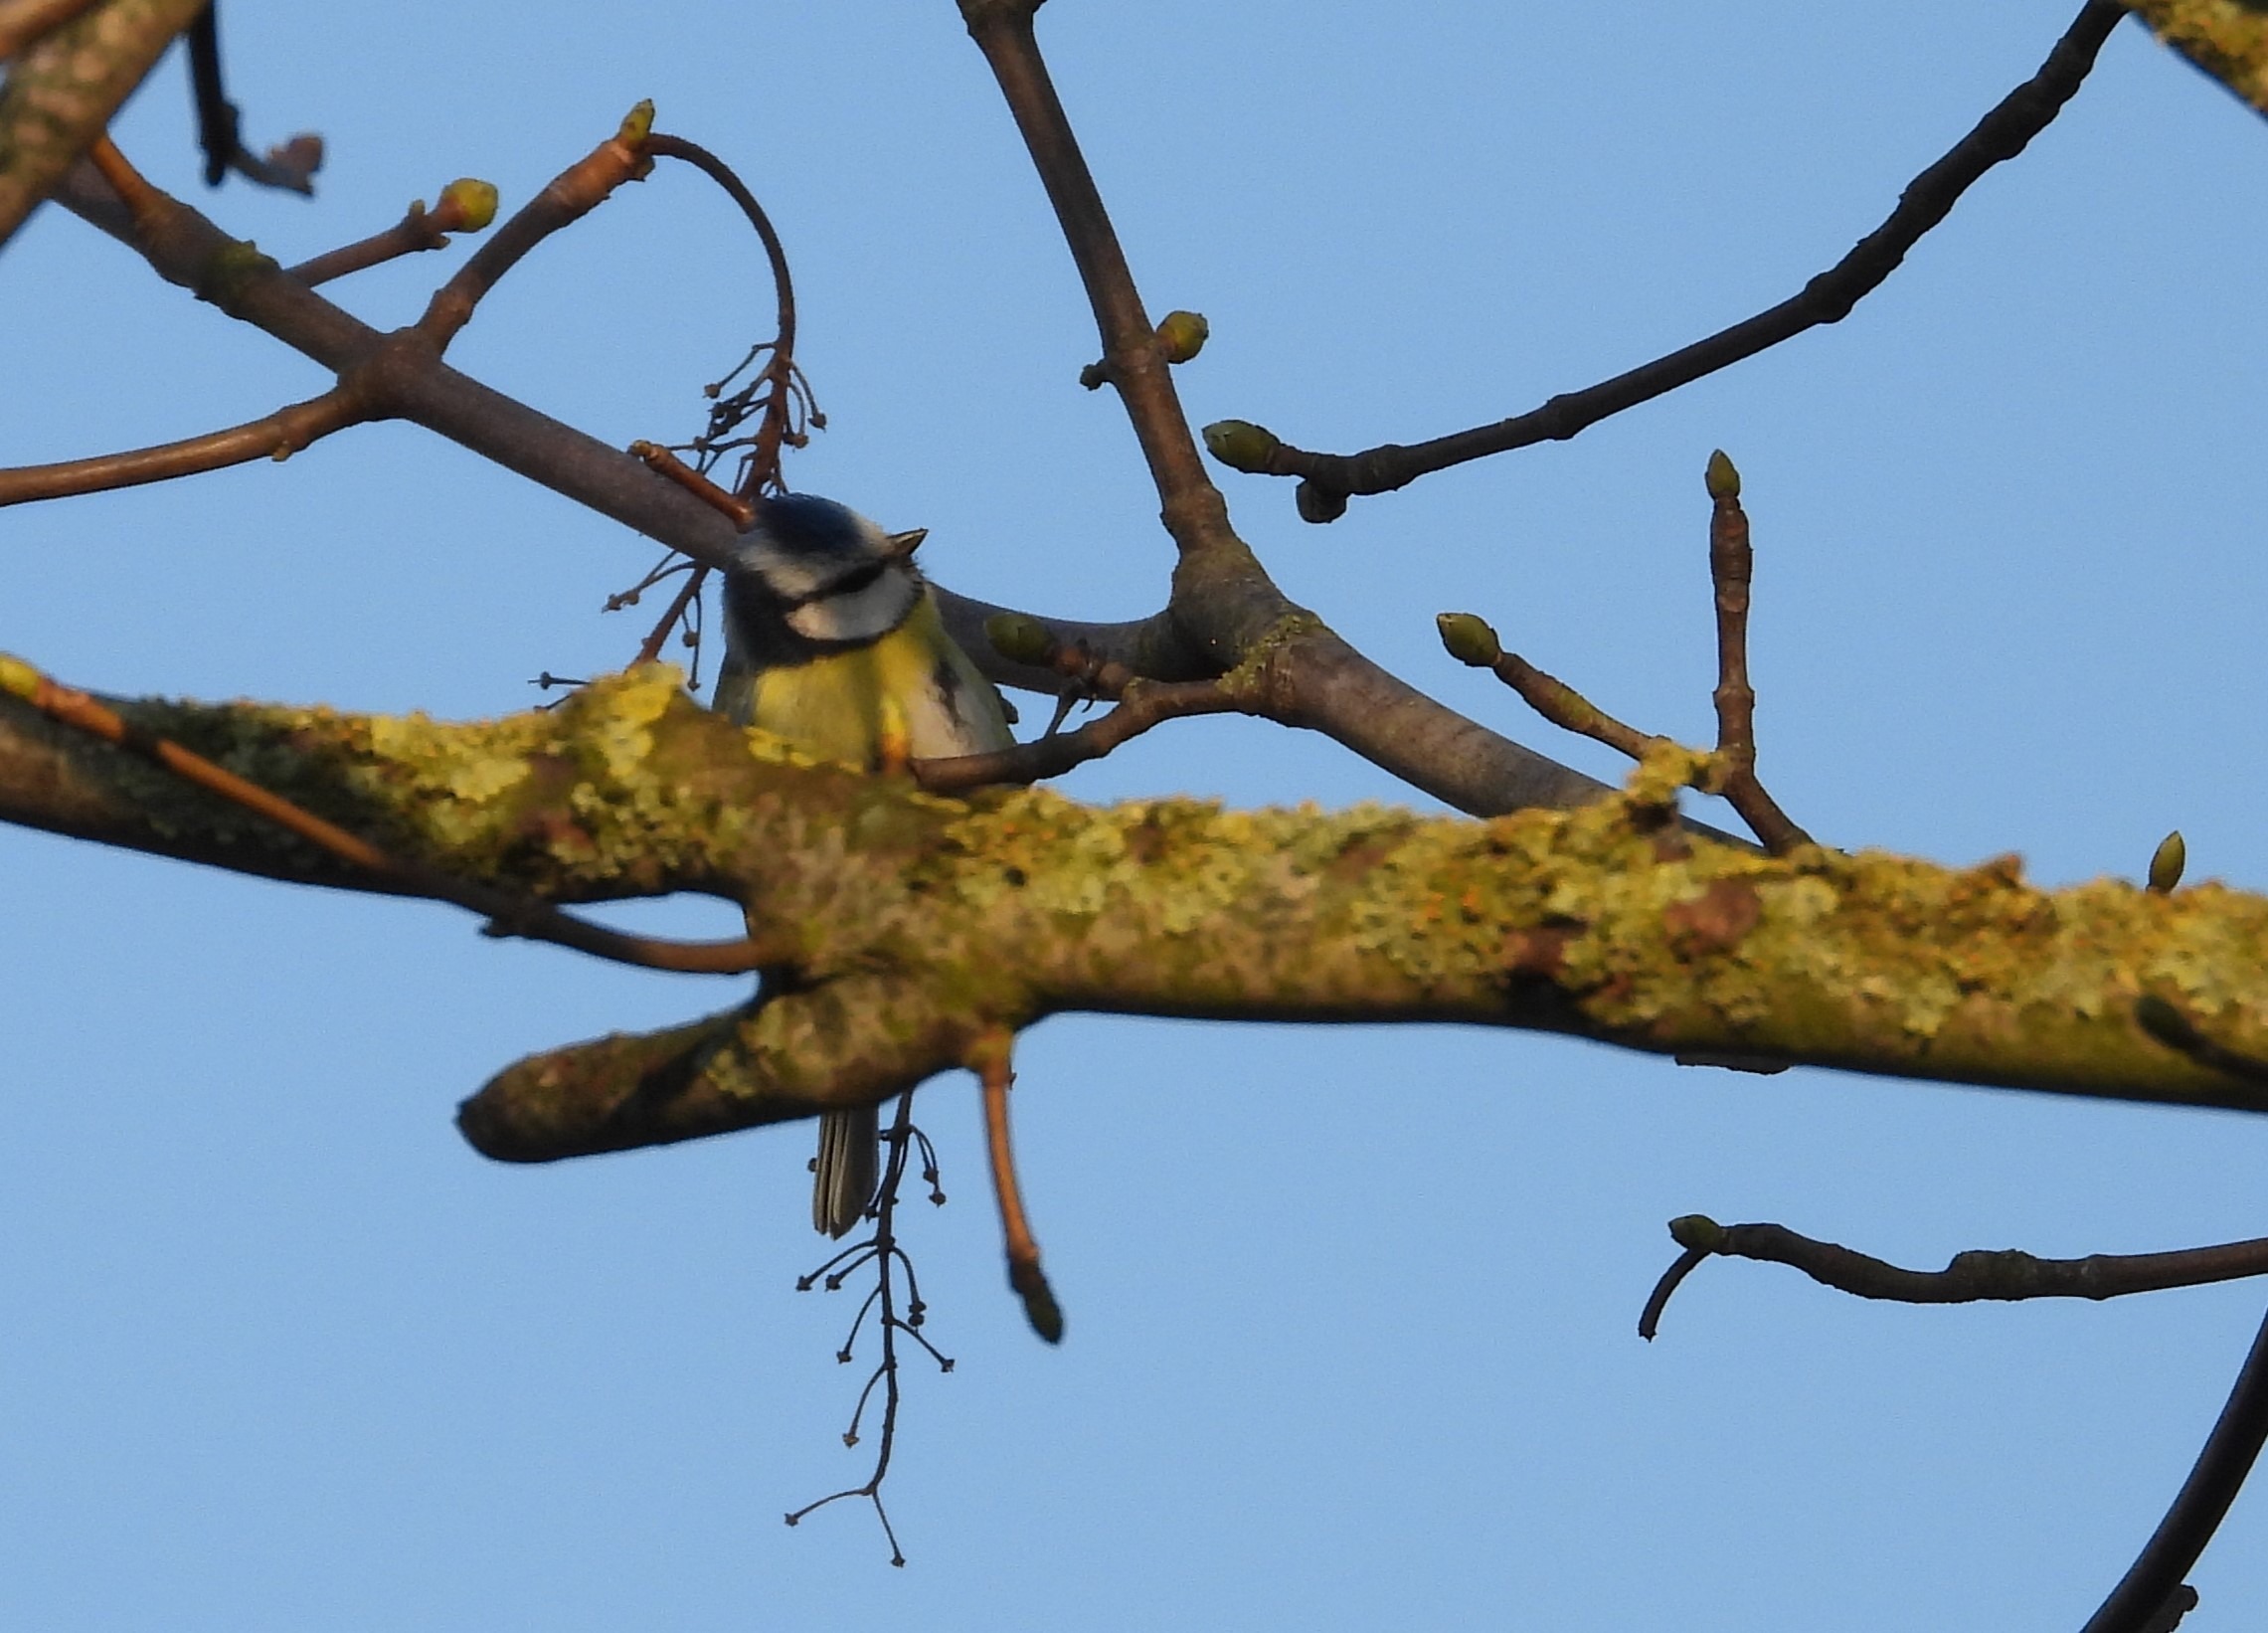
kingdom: Animalia
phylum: Chordata
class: Aves
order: Passeriformes
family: Paridae
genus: Cyanistes
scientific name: Cyanistes caeruleus
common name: Blåmejse
